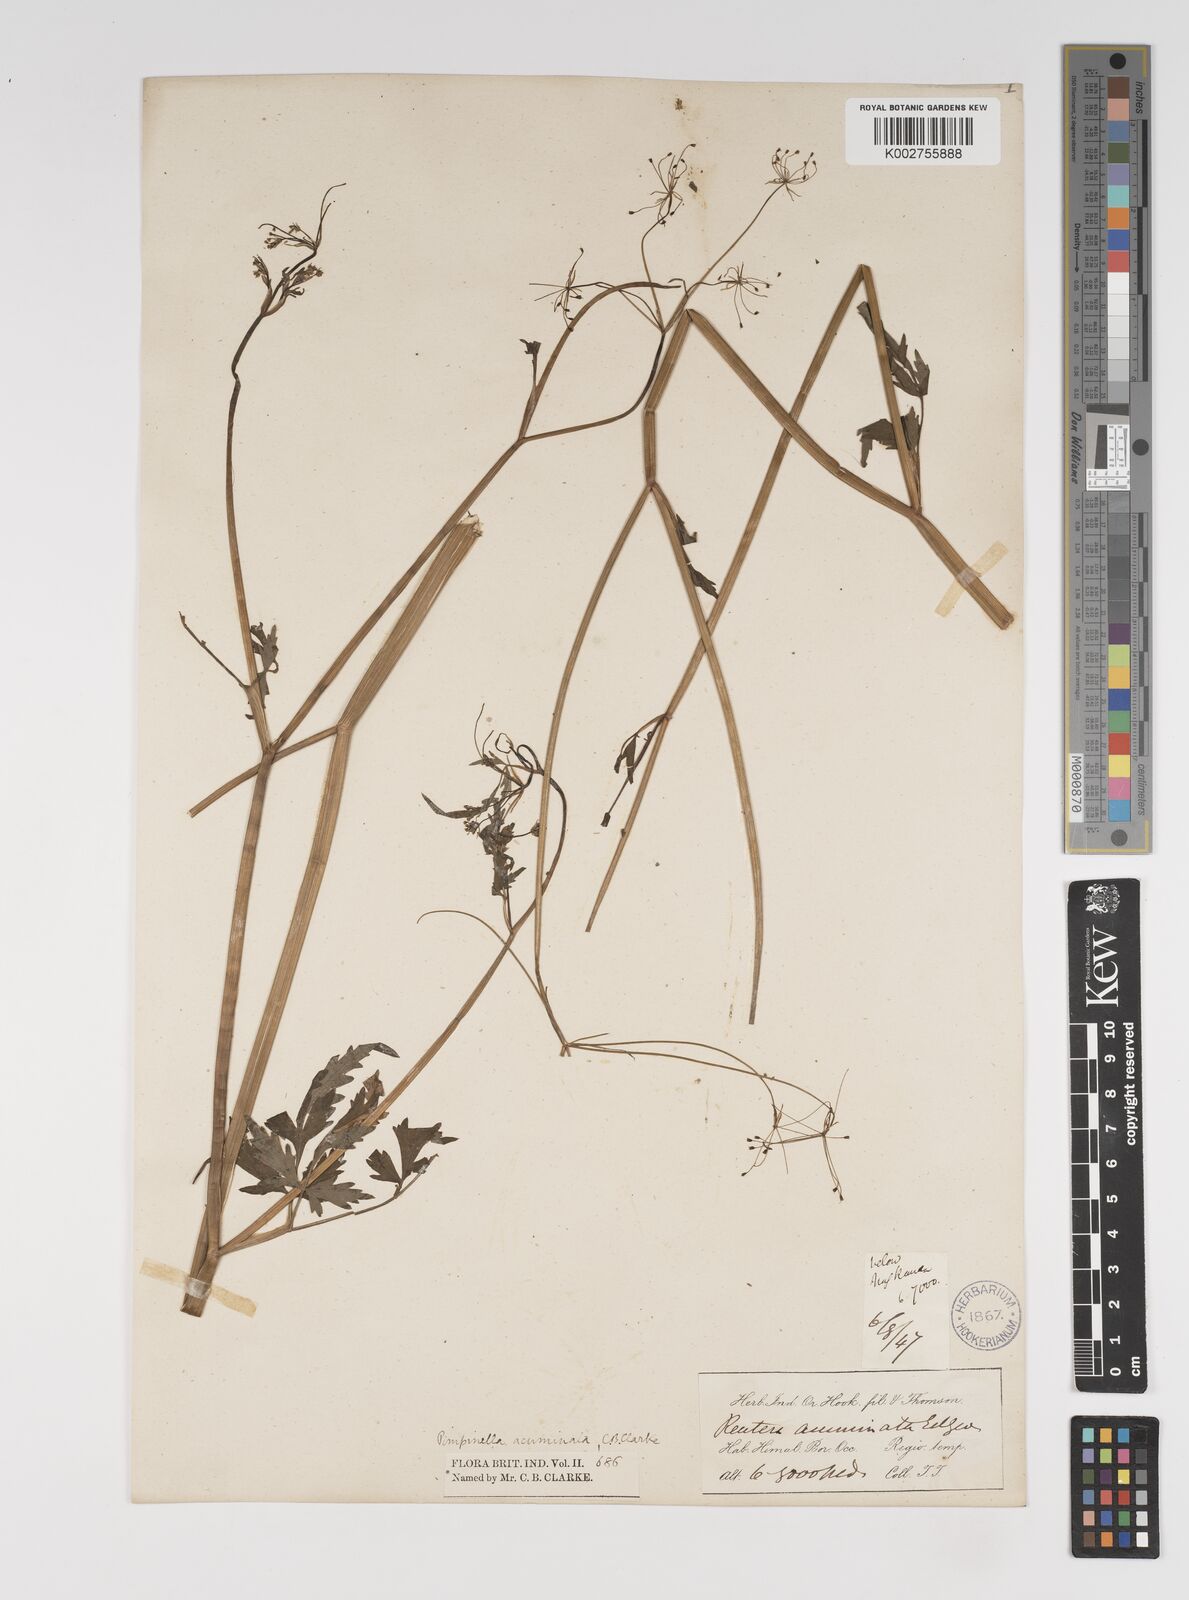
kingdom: Plantae
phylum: Tracheophyta
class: Magnoliopsida
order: Apiales
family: Apiaceae
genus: Pimpinella
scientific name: Pimpinella acuminata
